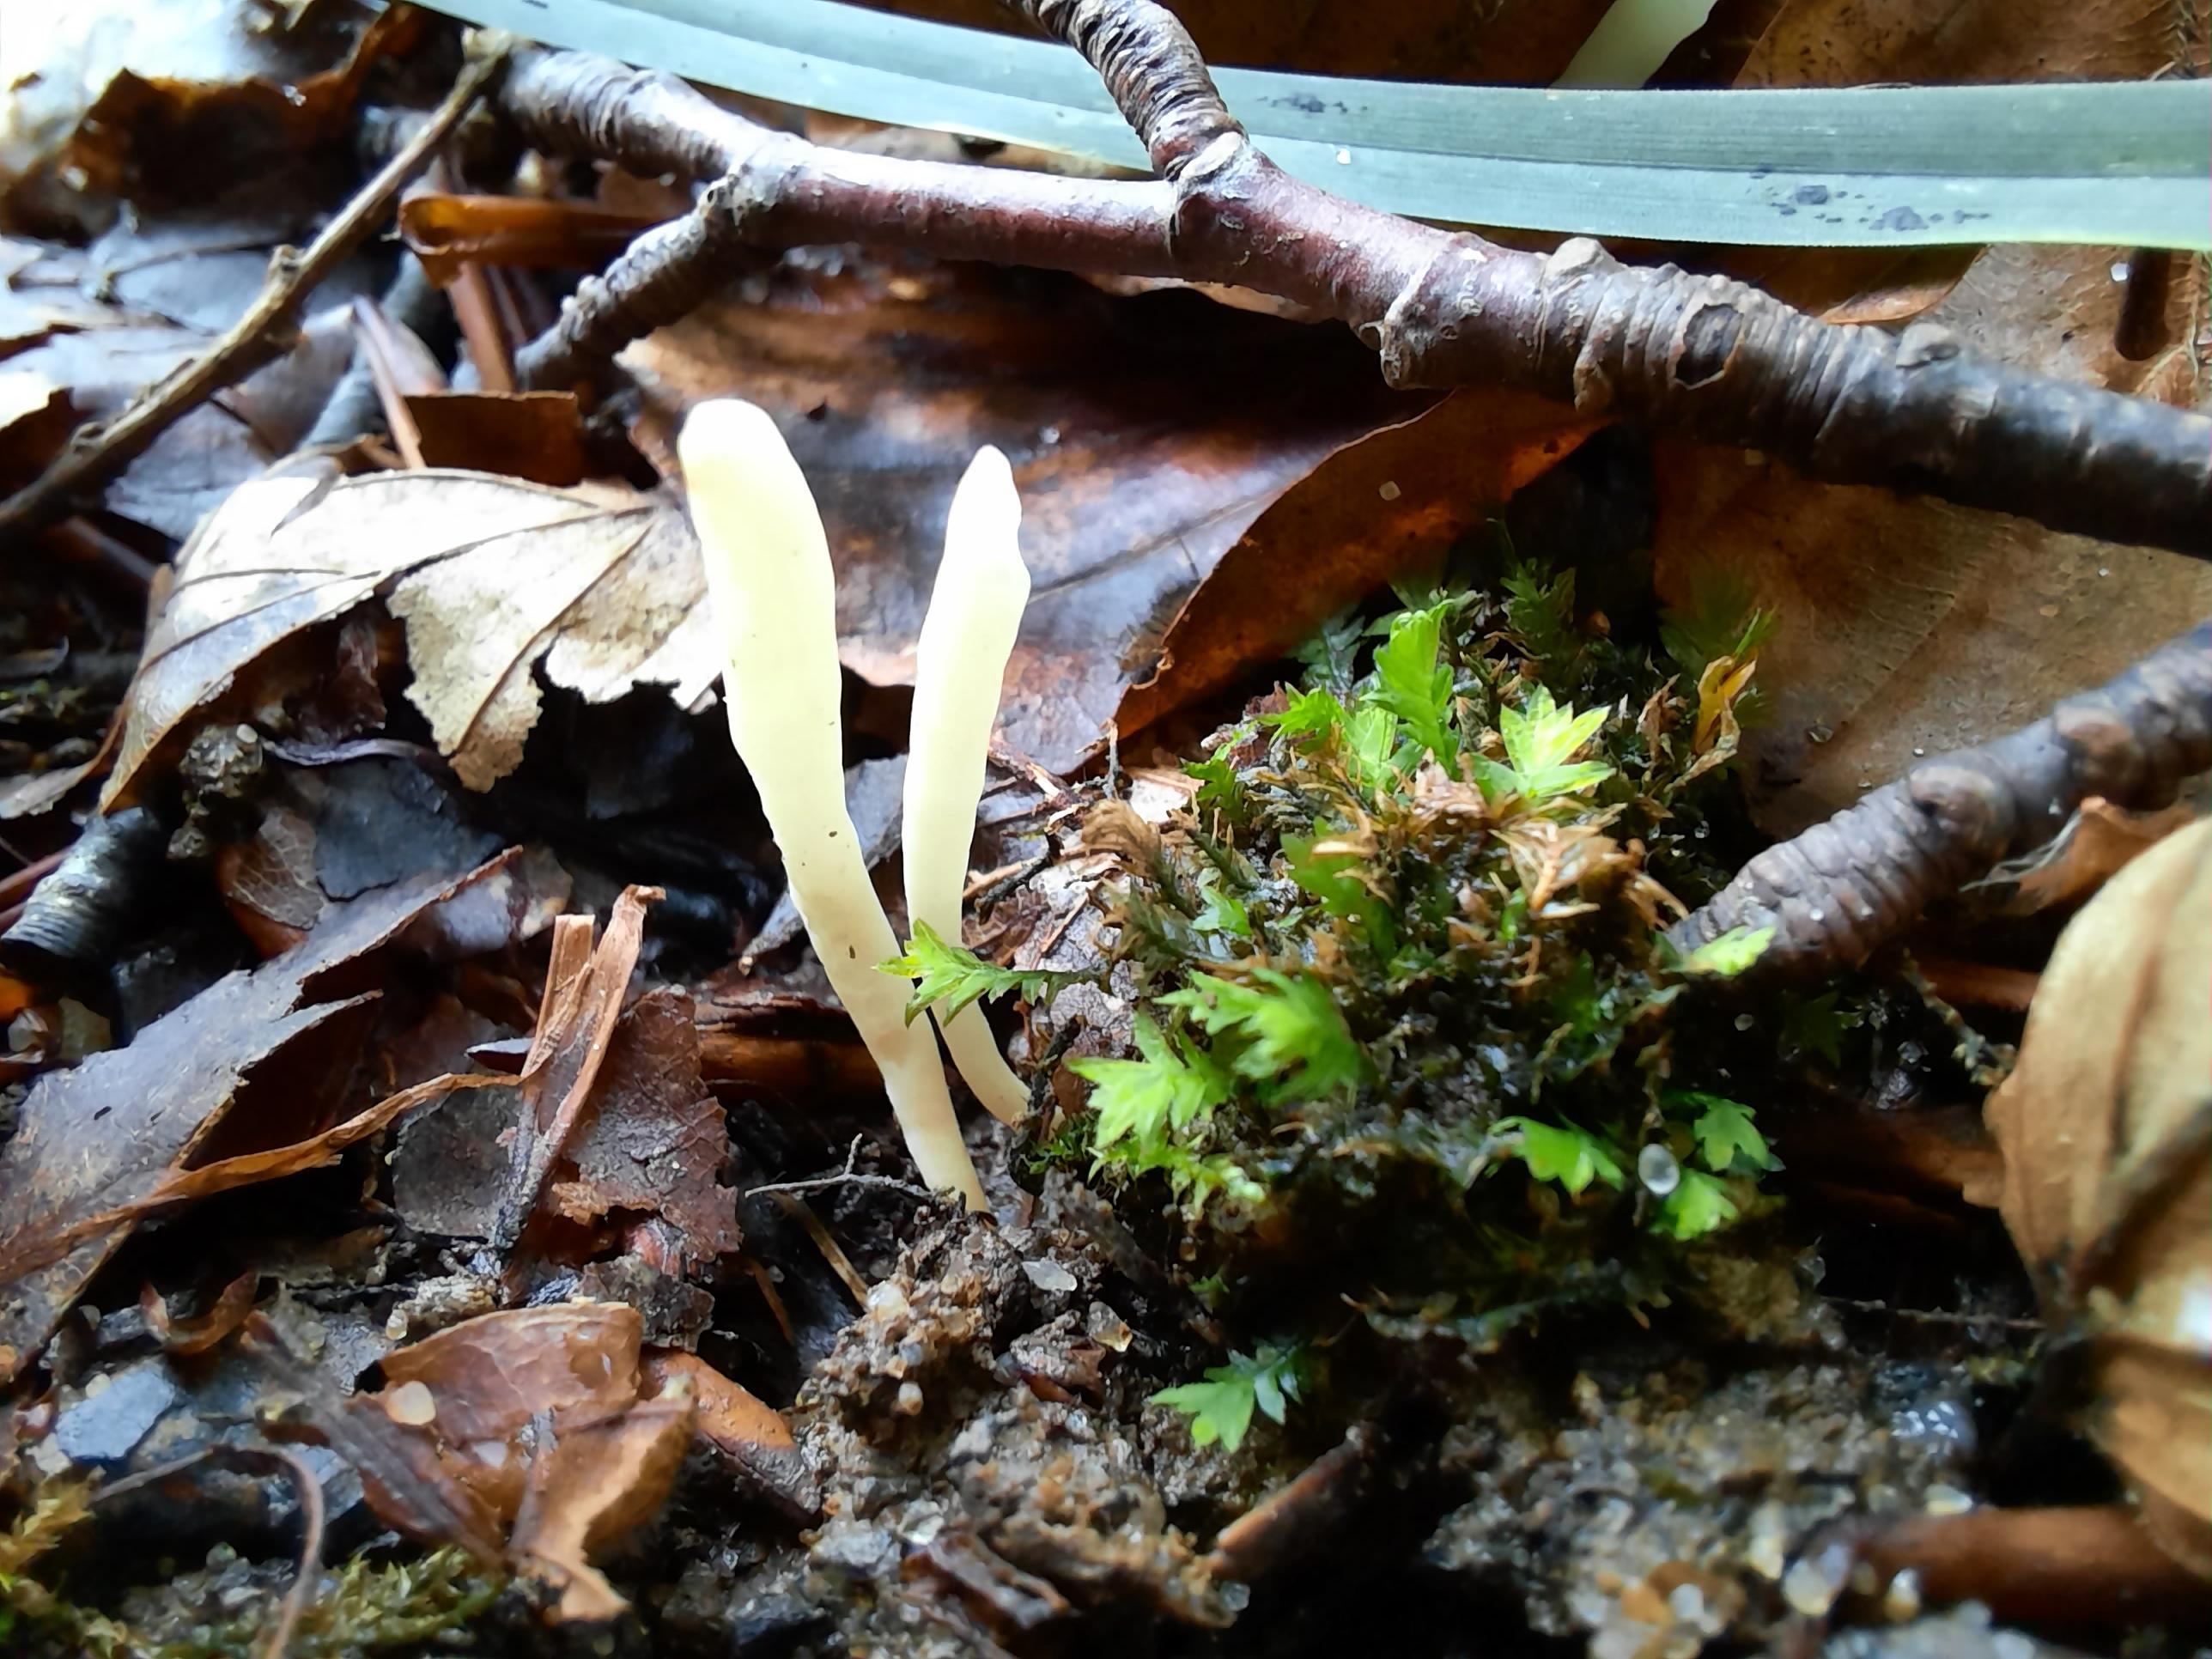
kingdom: Fungi
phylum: Basidiomycota
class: Agaricomycetes
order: Agaricales
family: Clavariaceae
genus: Clavaria
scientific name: Clavaria falcata
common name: hvid køllesvamp
